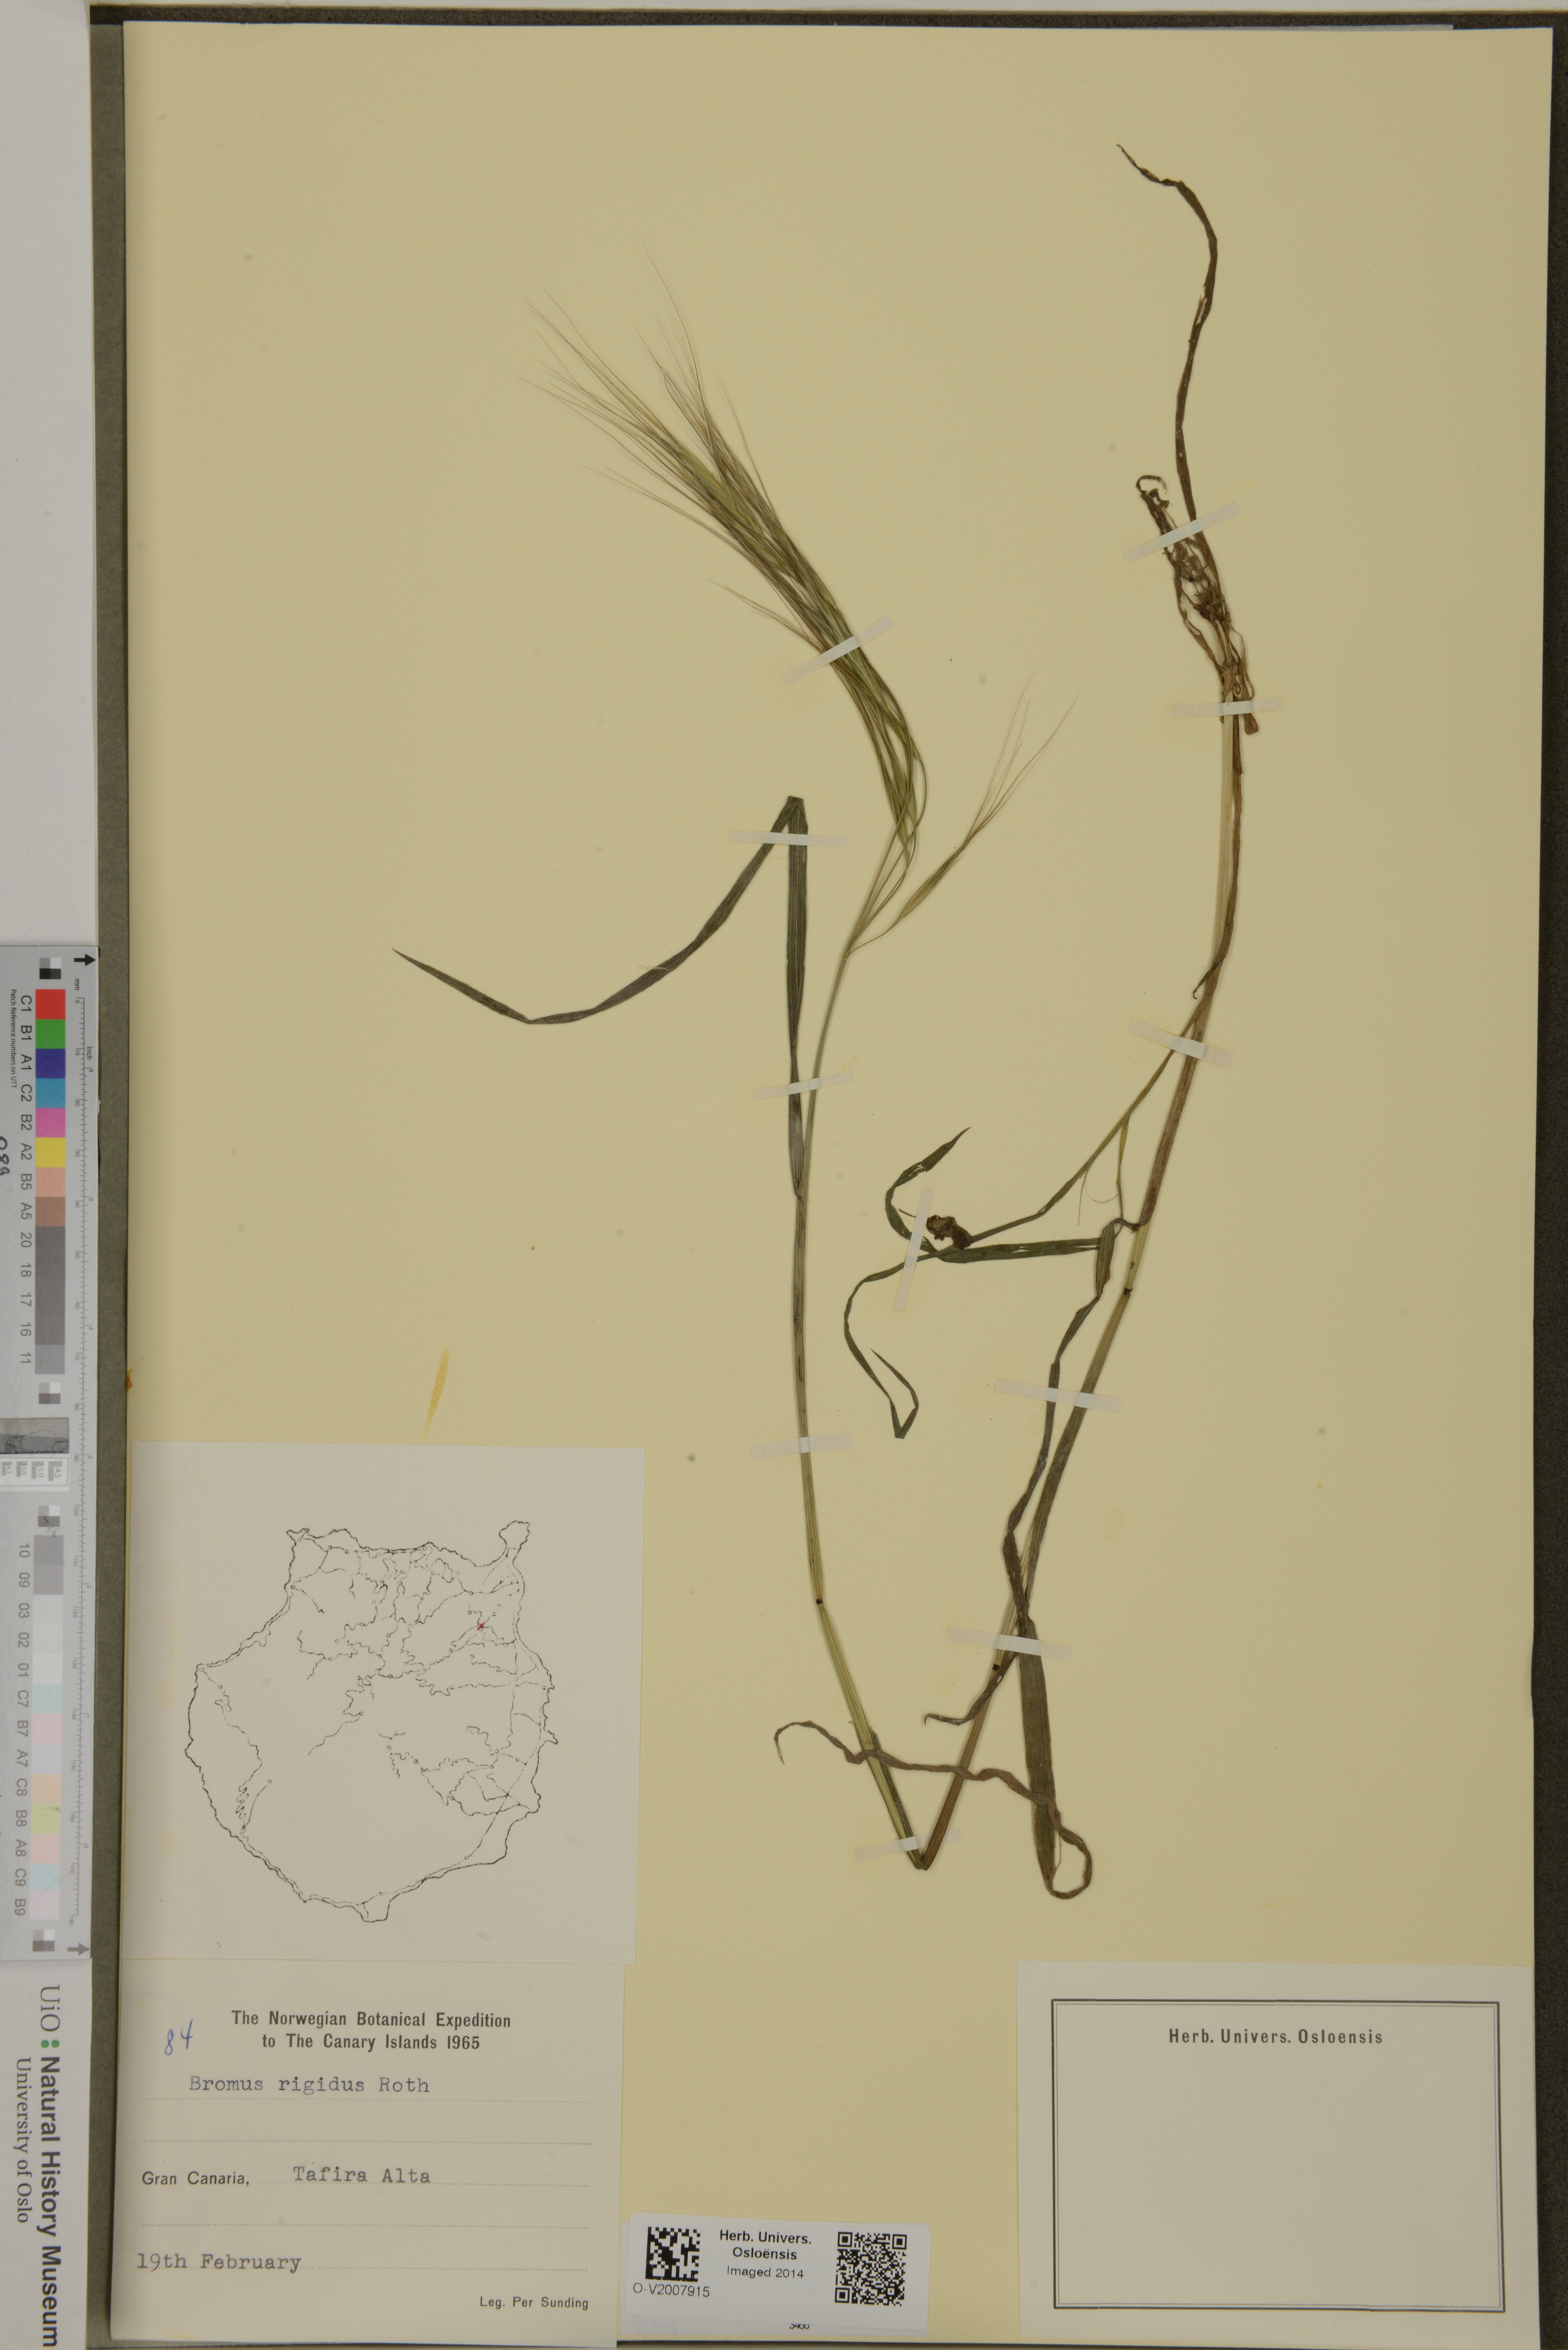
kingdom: Plantae
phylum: Tracheophyta
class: Liliopsida
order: Poales
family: Poaceae
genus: Bromus
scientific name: Bromus rigidus
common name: Ripgut brome
